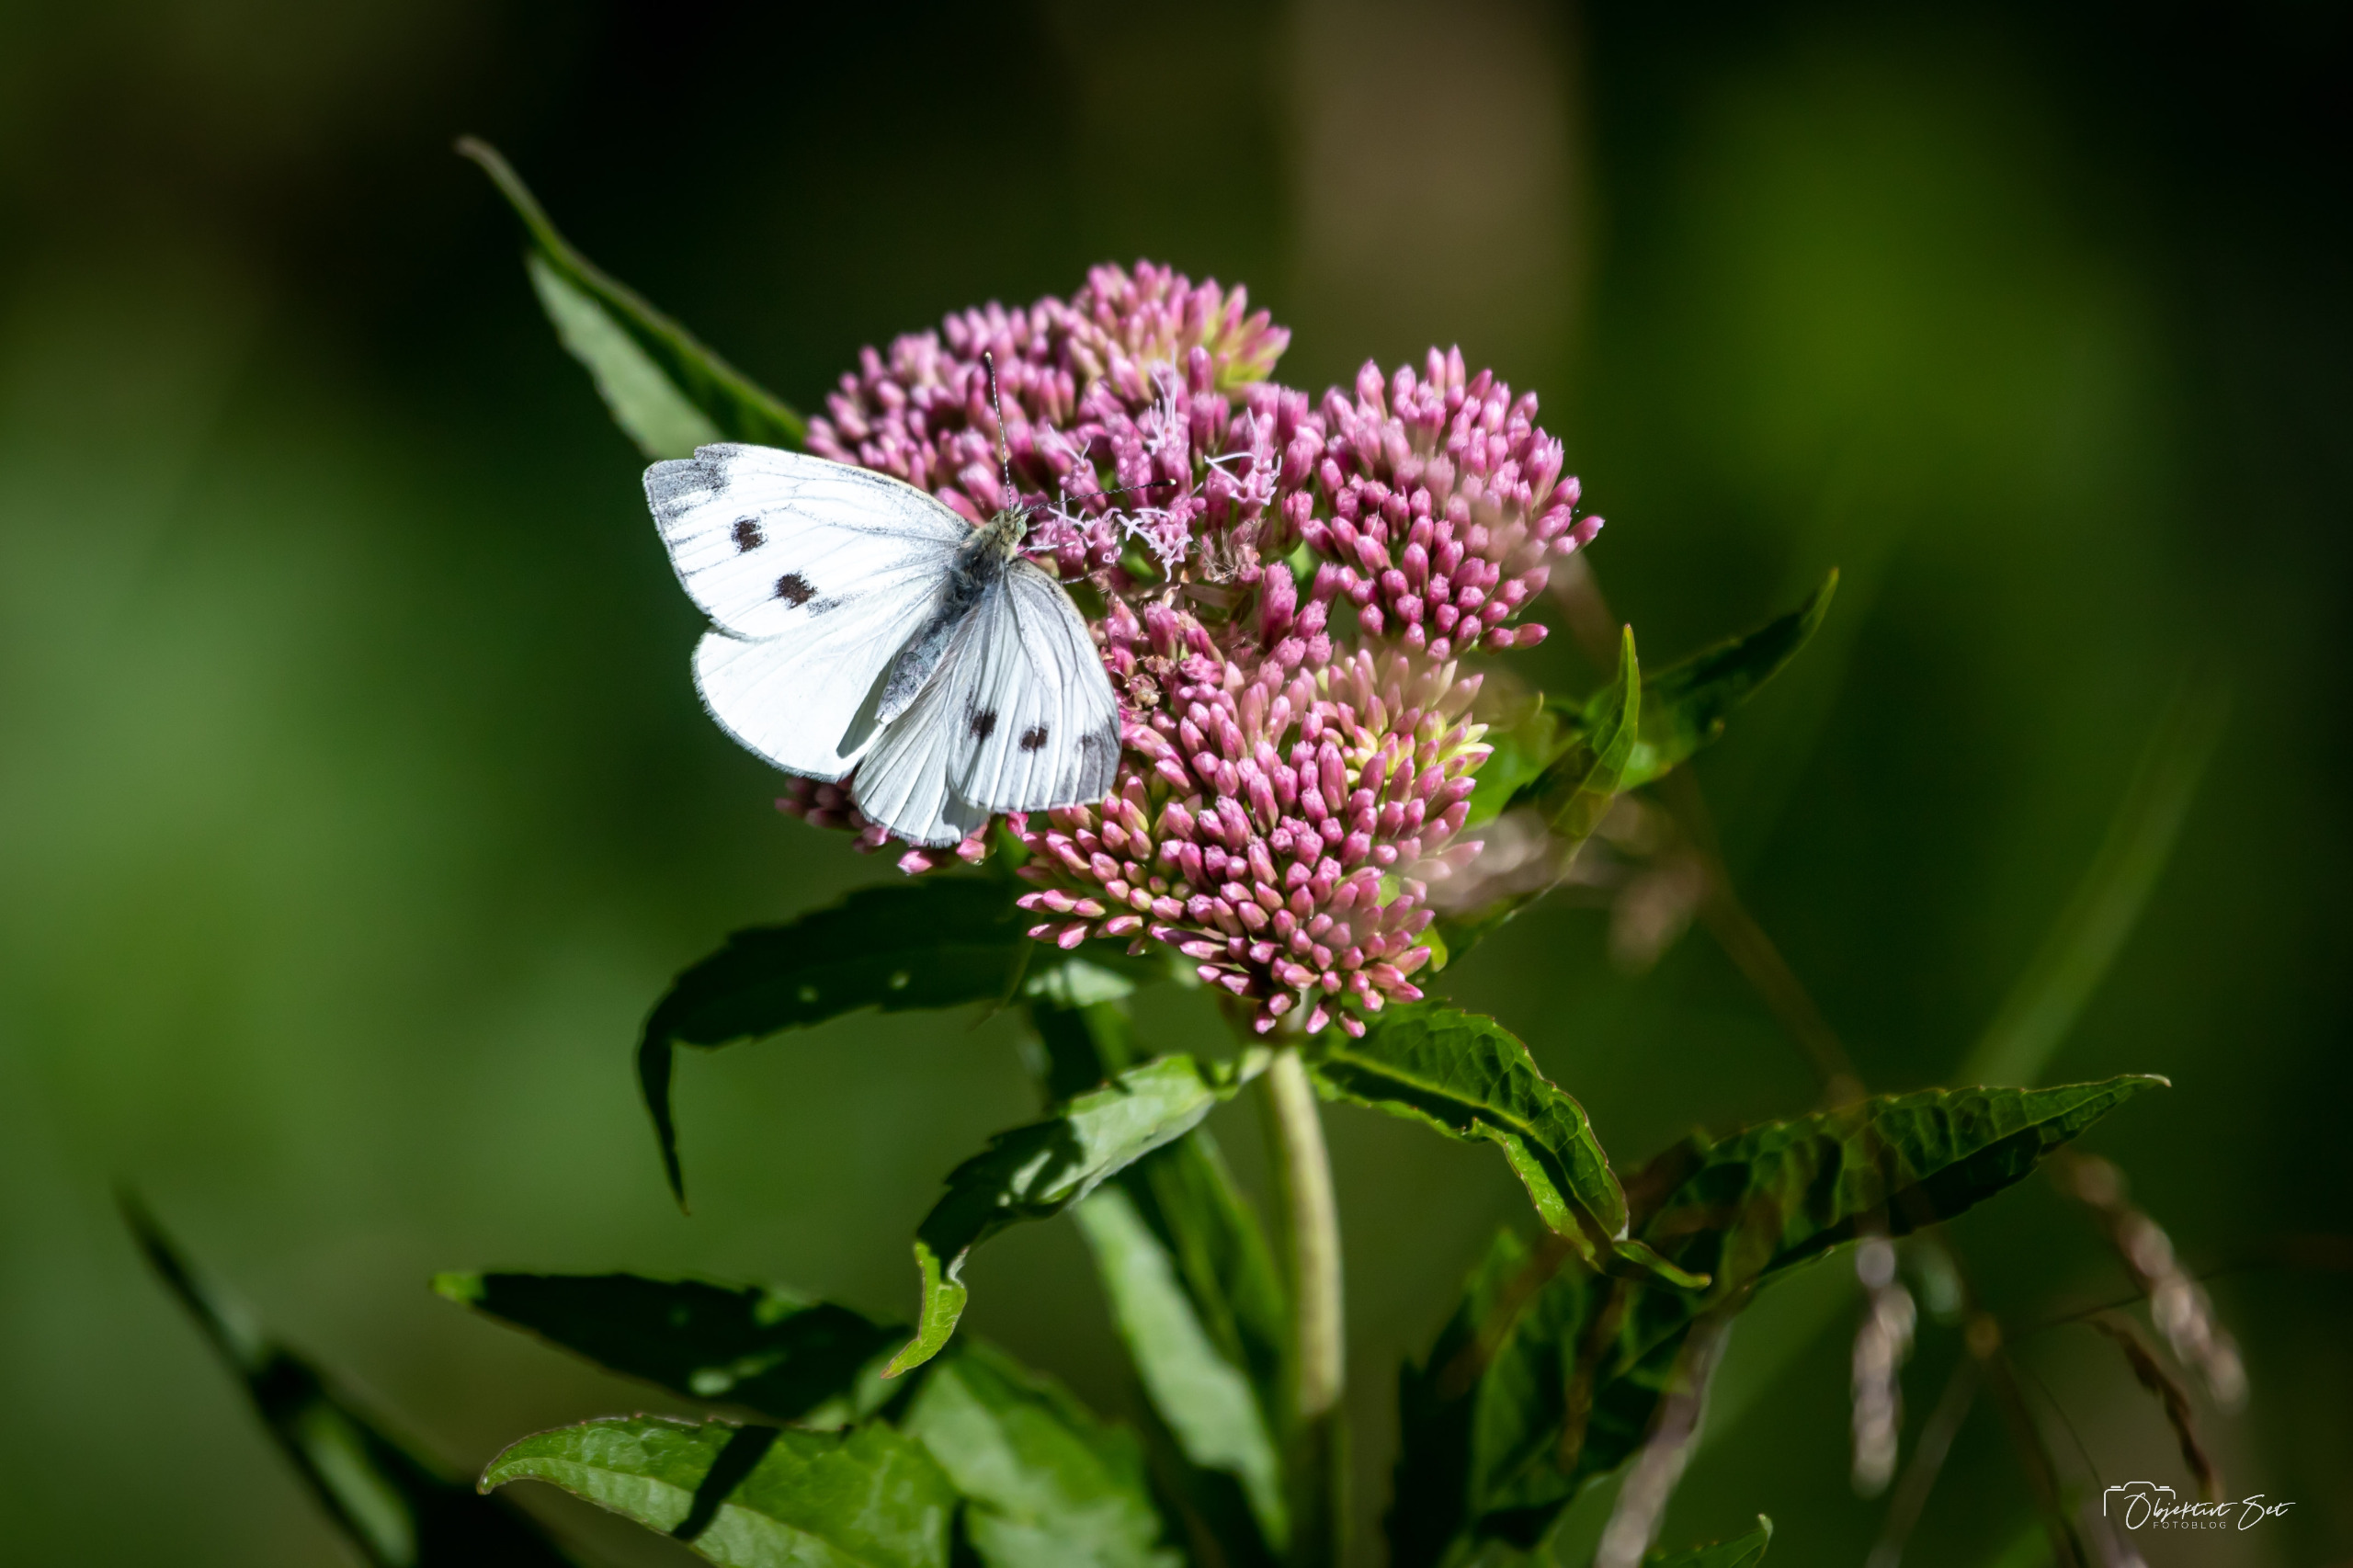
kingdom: Animalia
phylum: Arthropoda
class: Insecta
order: Lepidoptera
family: Pieridae
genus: Pieris
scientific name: Pieris napi
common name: Grønåret kålsommerfugl
